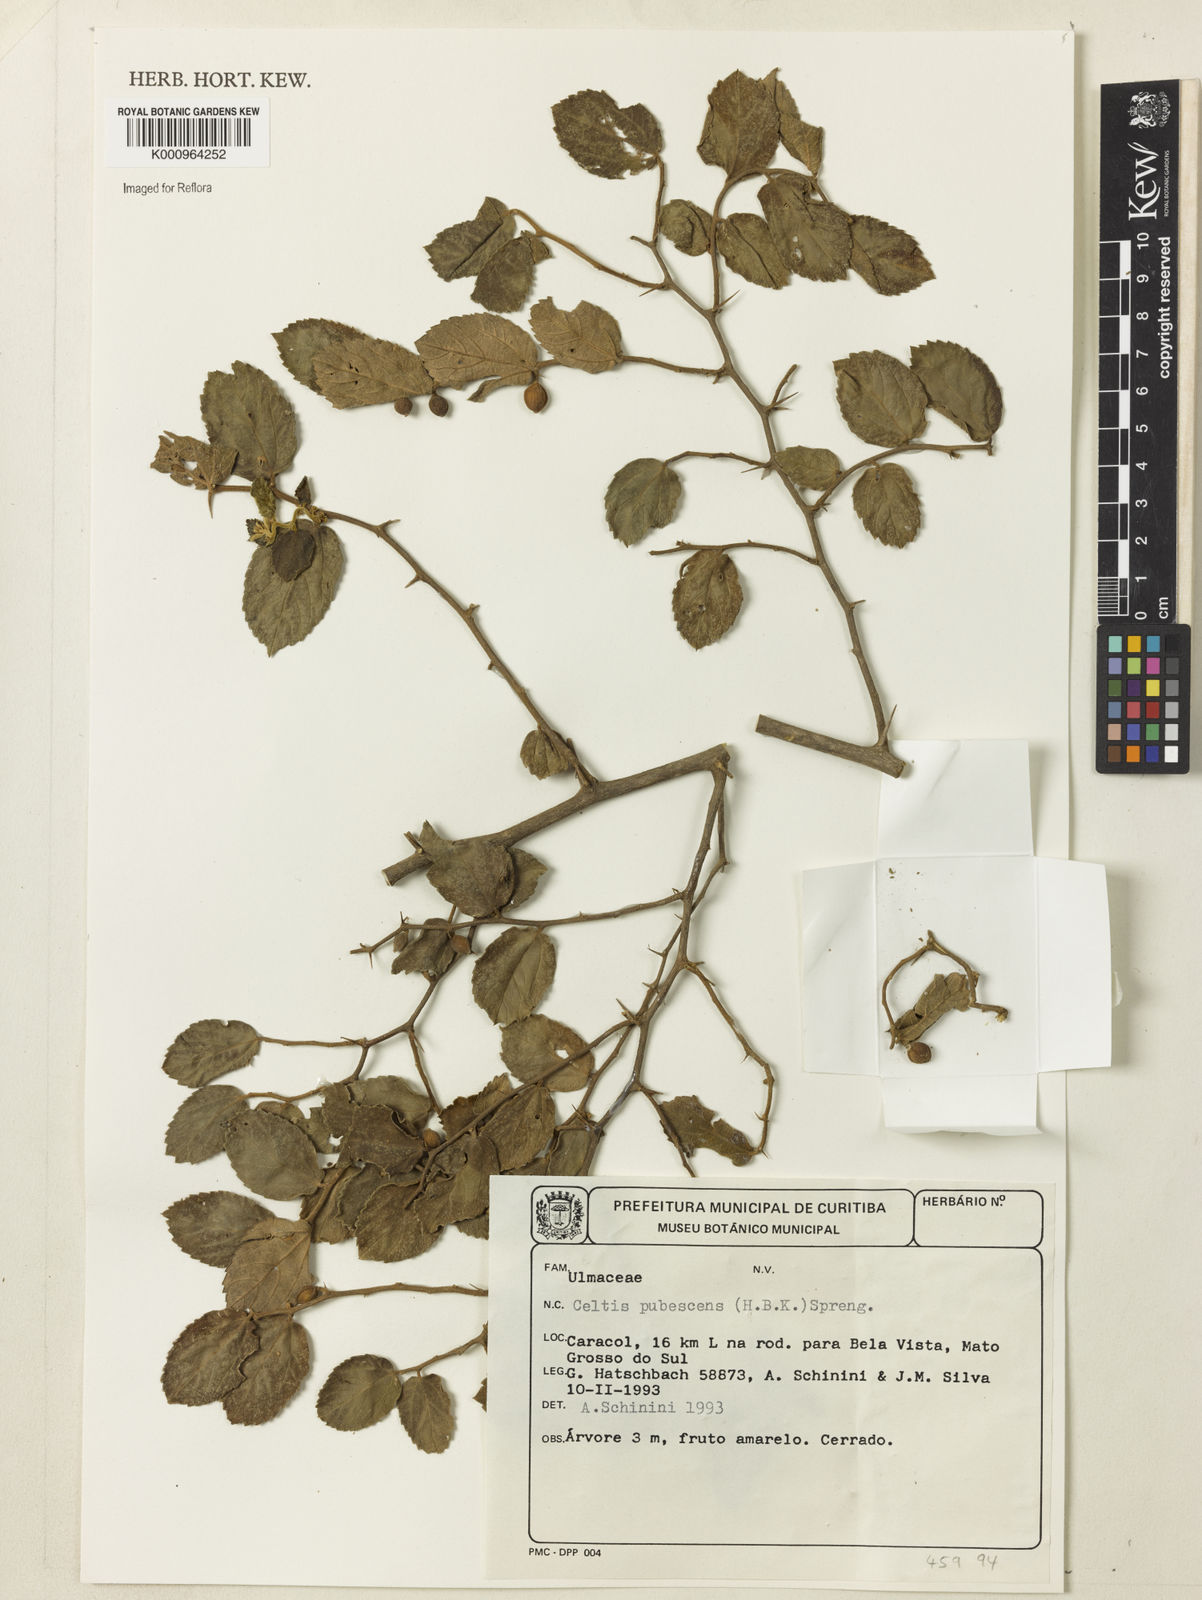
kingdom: Plantae
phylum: Tracheophyta
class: Magnoliopsida
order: Rosales
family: Cannabaceae
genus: Celtis
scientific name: Celtis iguanaea
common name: Iguana hackberry
